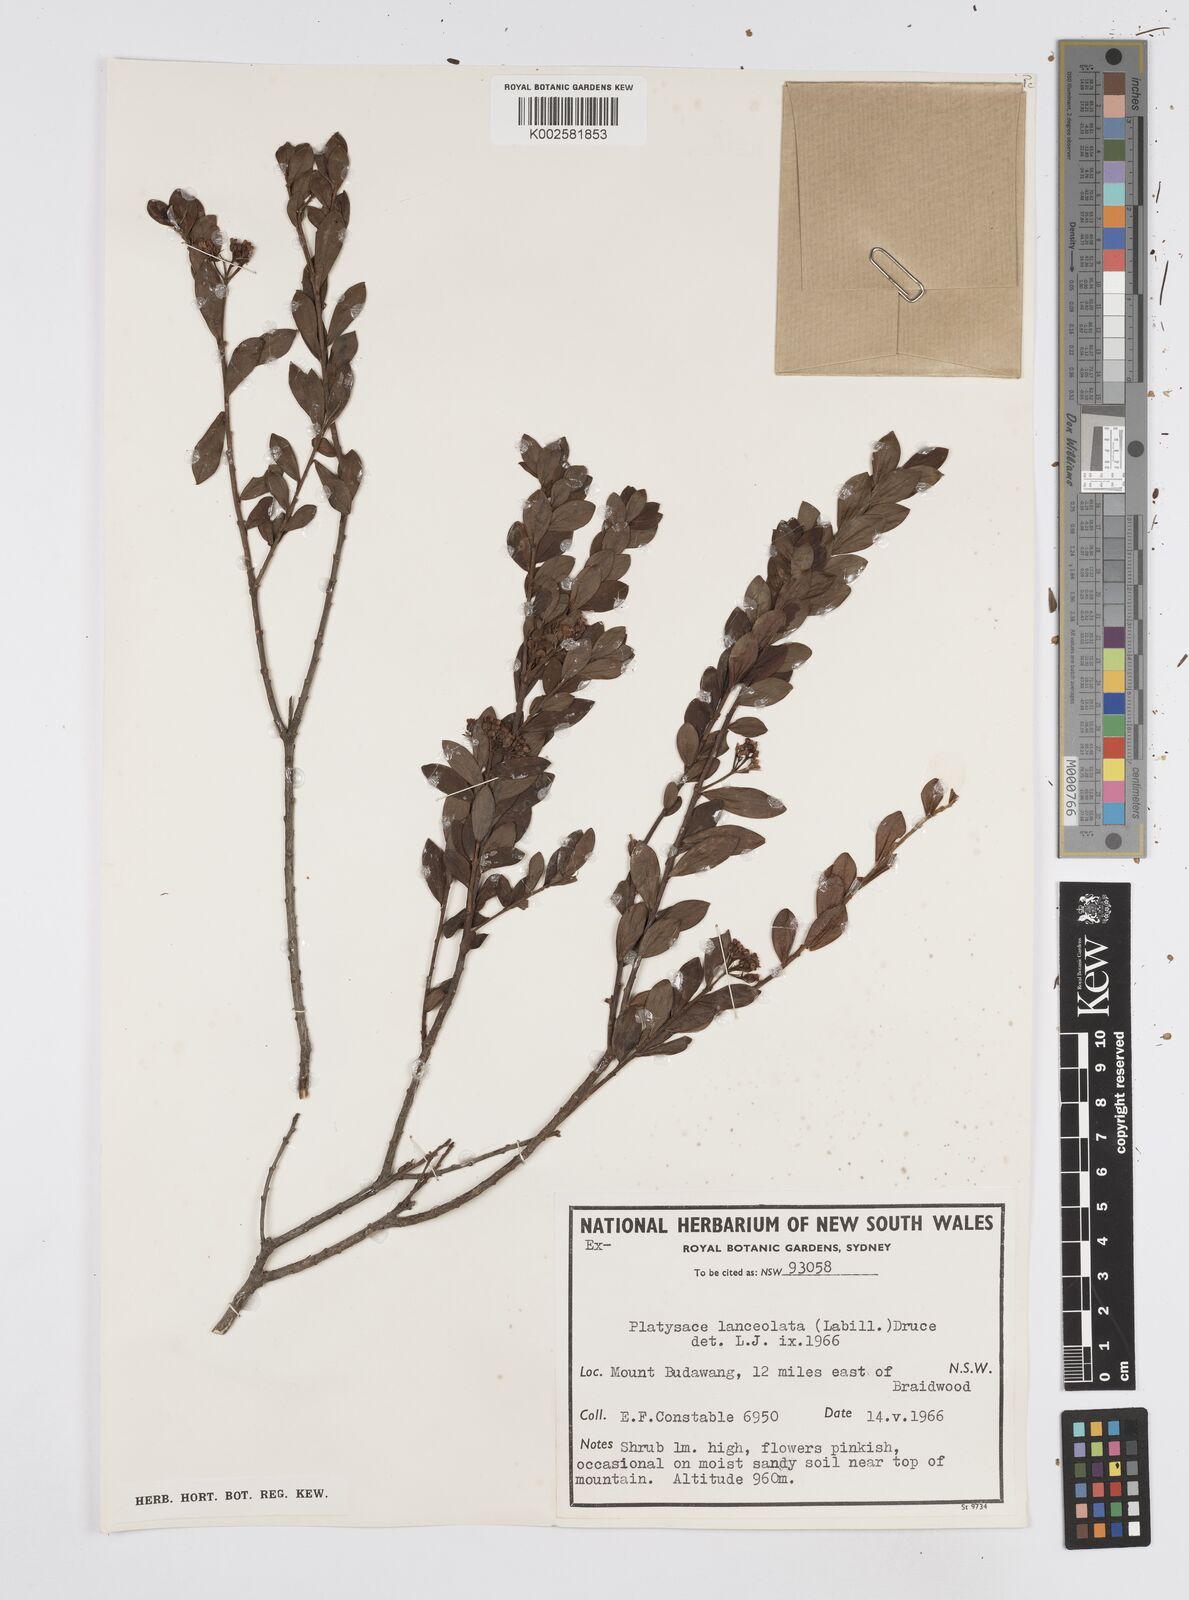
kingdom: Plantae
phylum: Tracheophyta
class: Magnoliopsida
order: Apiales
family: Apiaceae
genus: Platysace
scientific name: Platysace lanceolata
